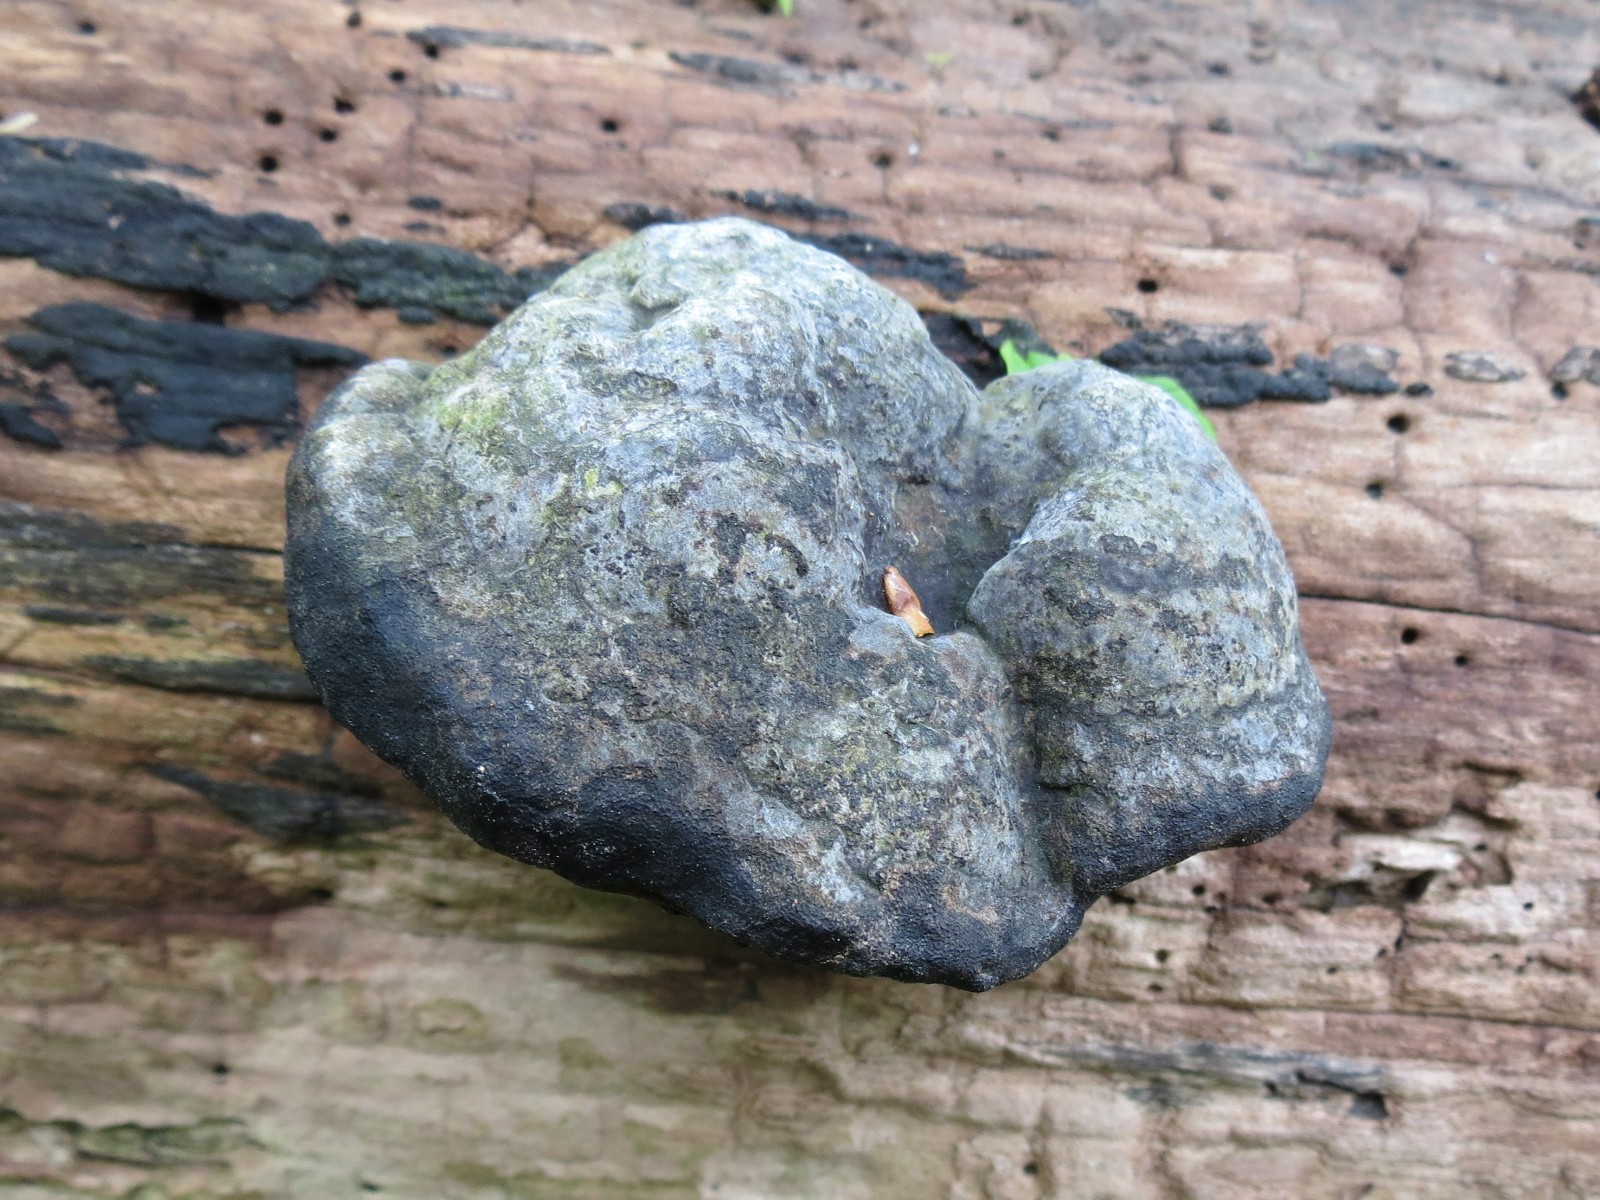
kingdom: Fungi
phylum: Basidiomycota
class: Agaricomycetes
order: Polyporales
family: Polyporaceae
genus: Fomes
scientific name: Fomes fomentarius
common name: tøndersvamp
